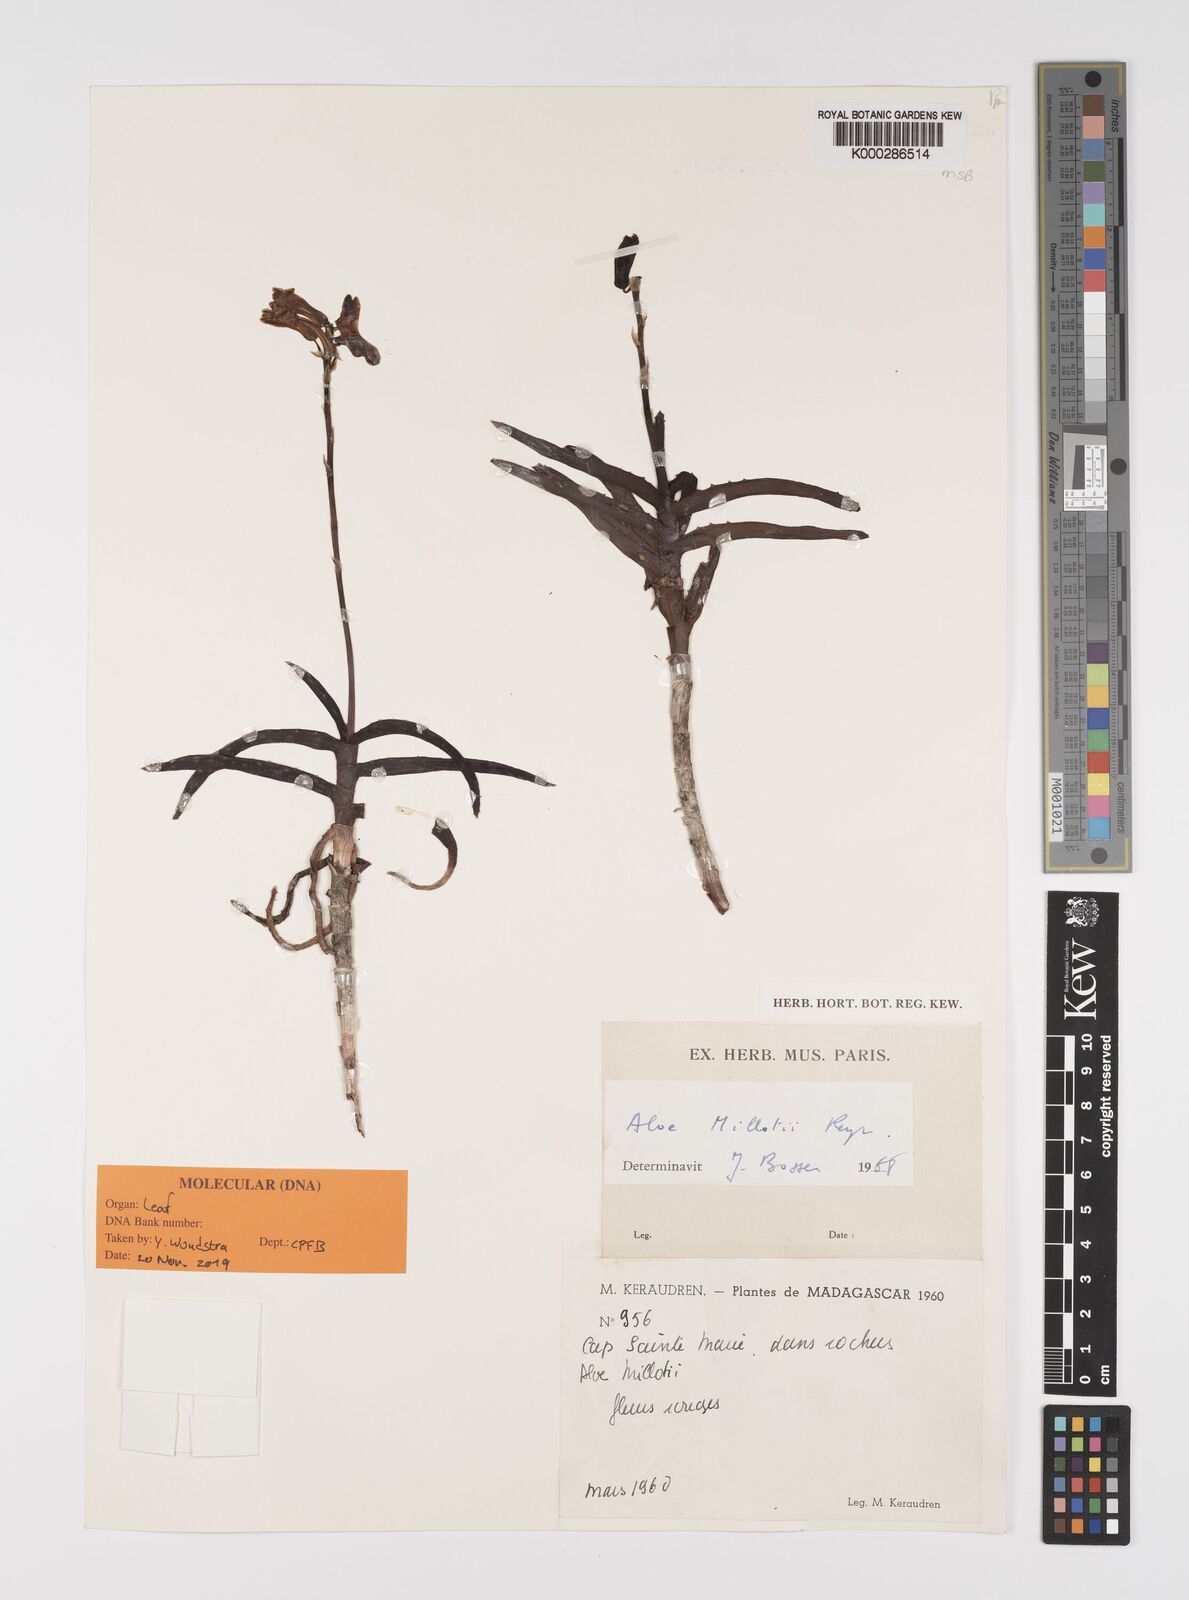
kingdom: Plantae
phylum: Tracheophyta
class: Liliopsida
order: Asparagales
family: Asphodelaceae
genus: Aloe
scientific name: Aloe millotii
